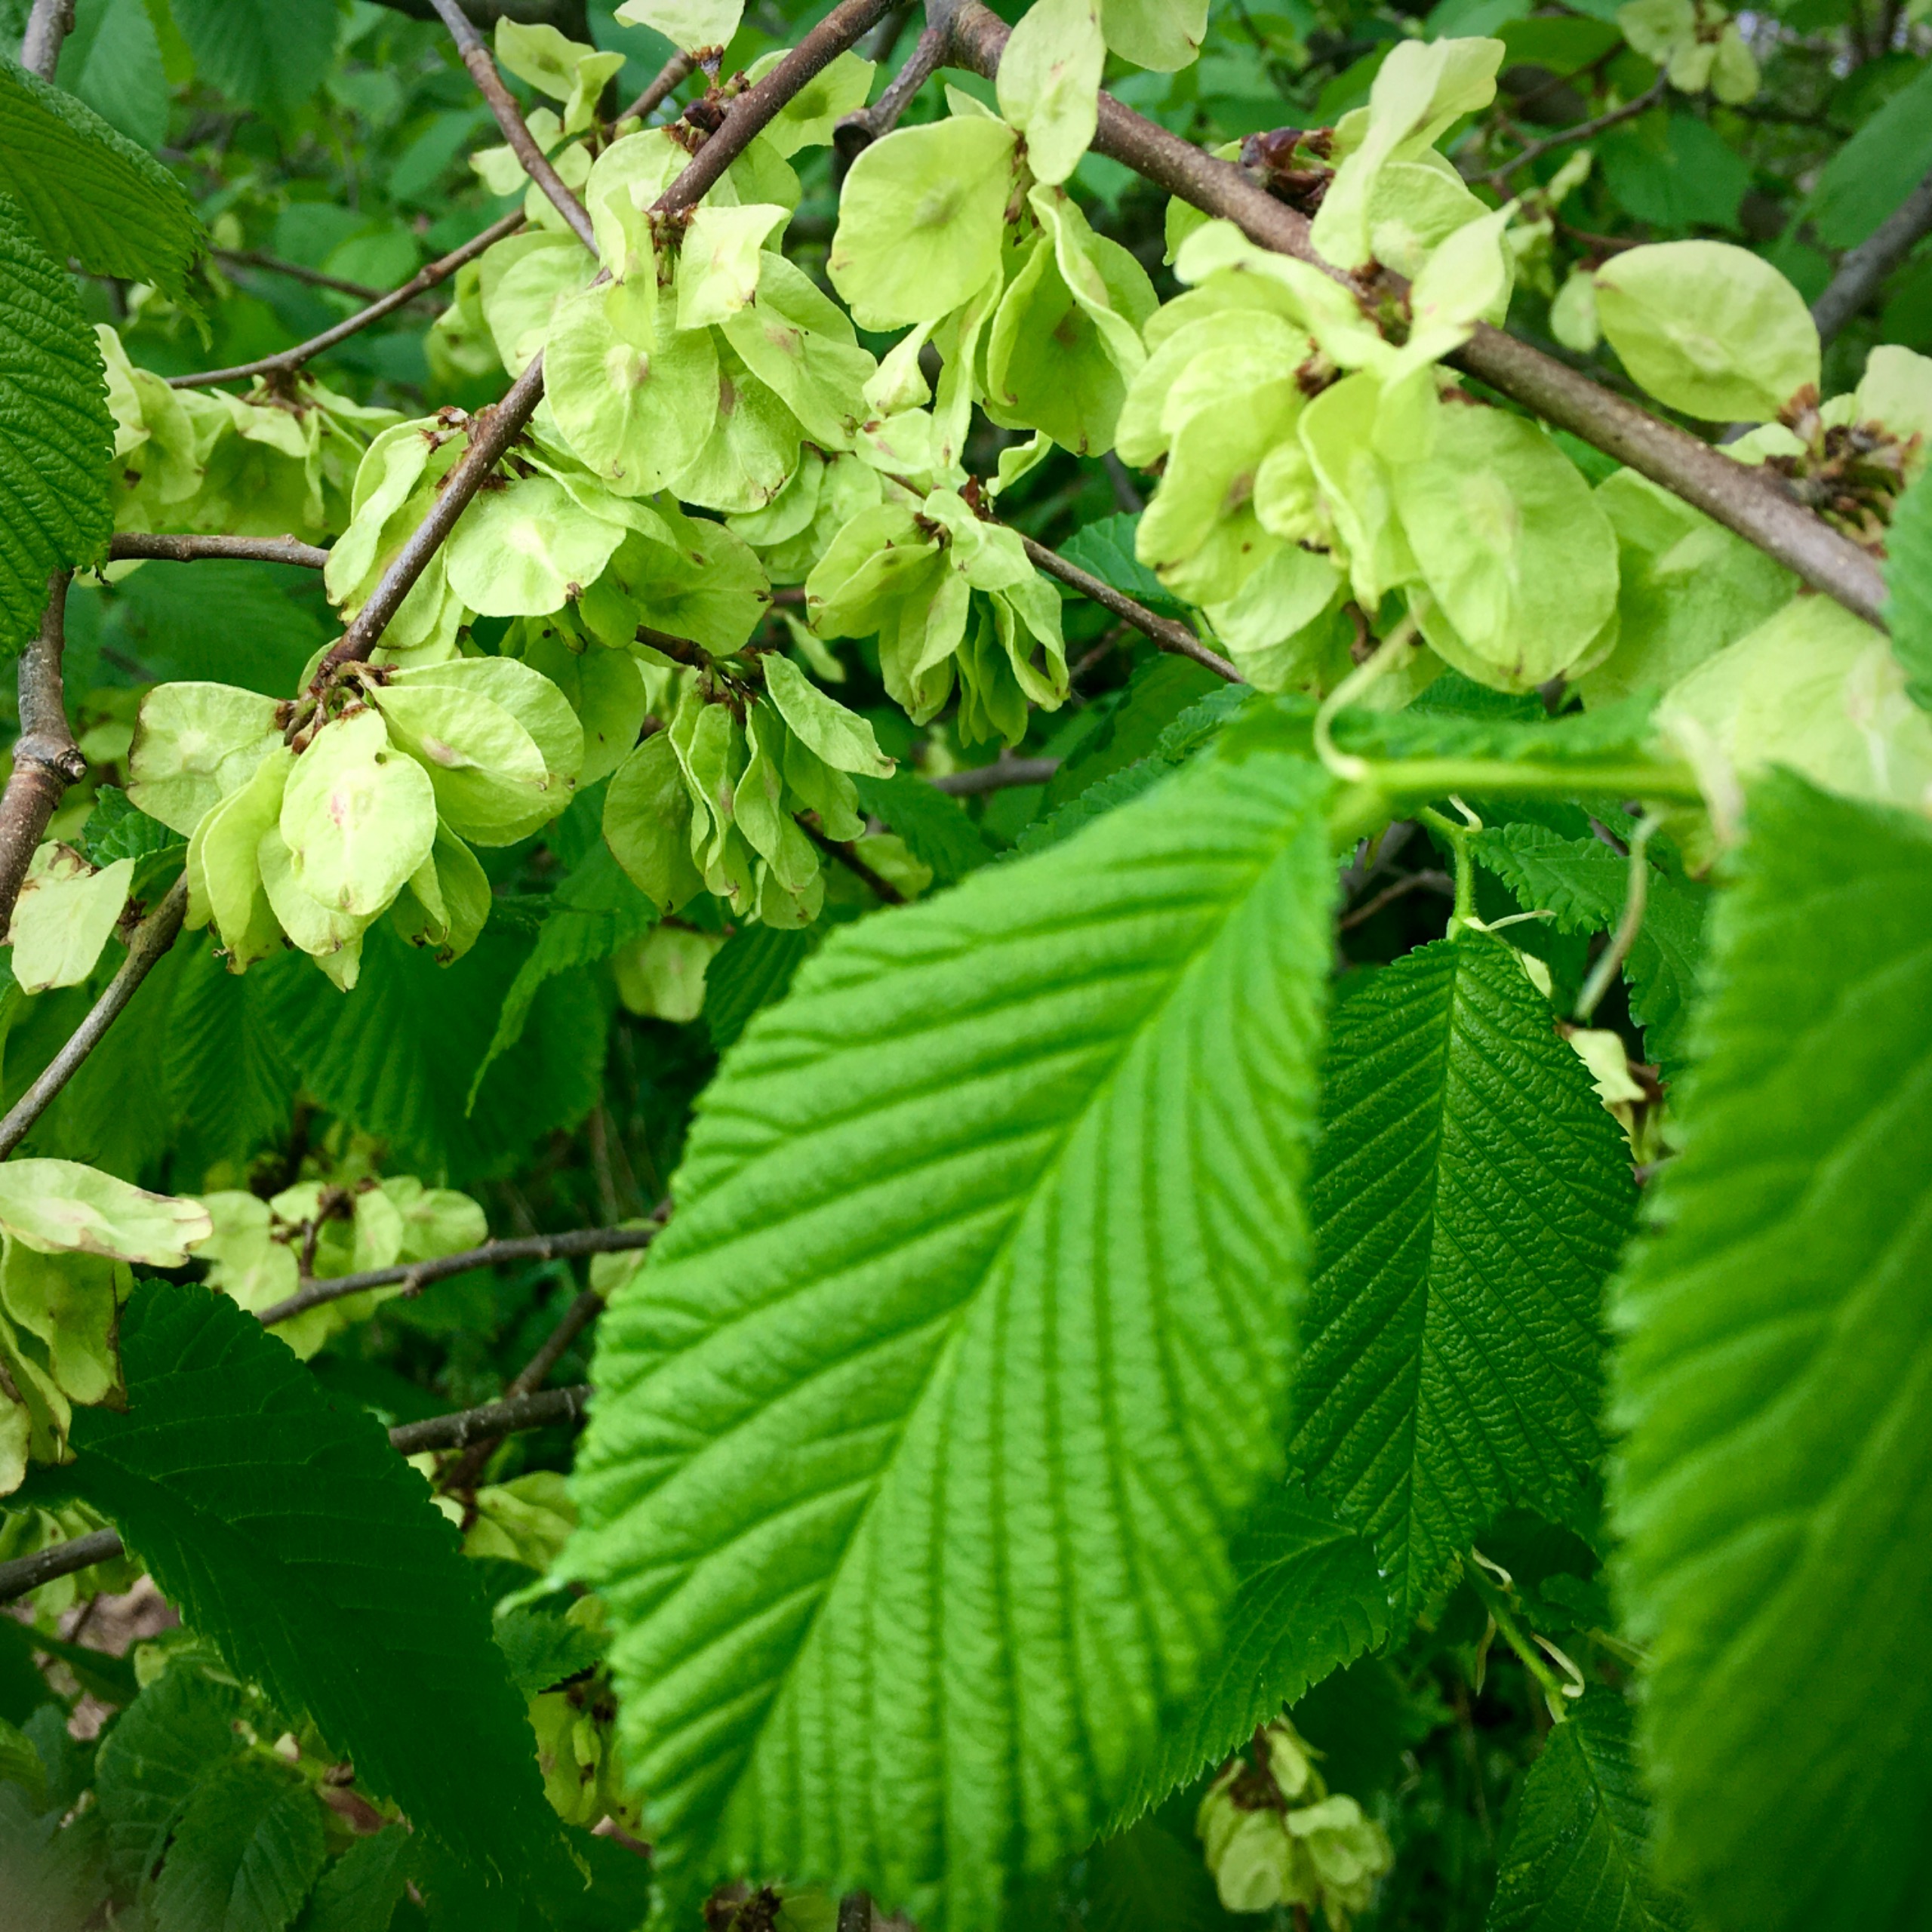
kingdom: Plantae
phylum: Tracheophyta
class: Magnoliopsida
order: Rosales
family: Ulmaceae
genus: Ulmus
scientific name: Ulmus glabra
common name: Skov-elm/storbladet elm
